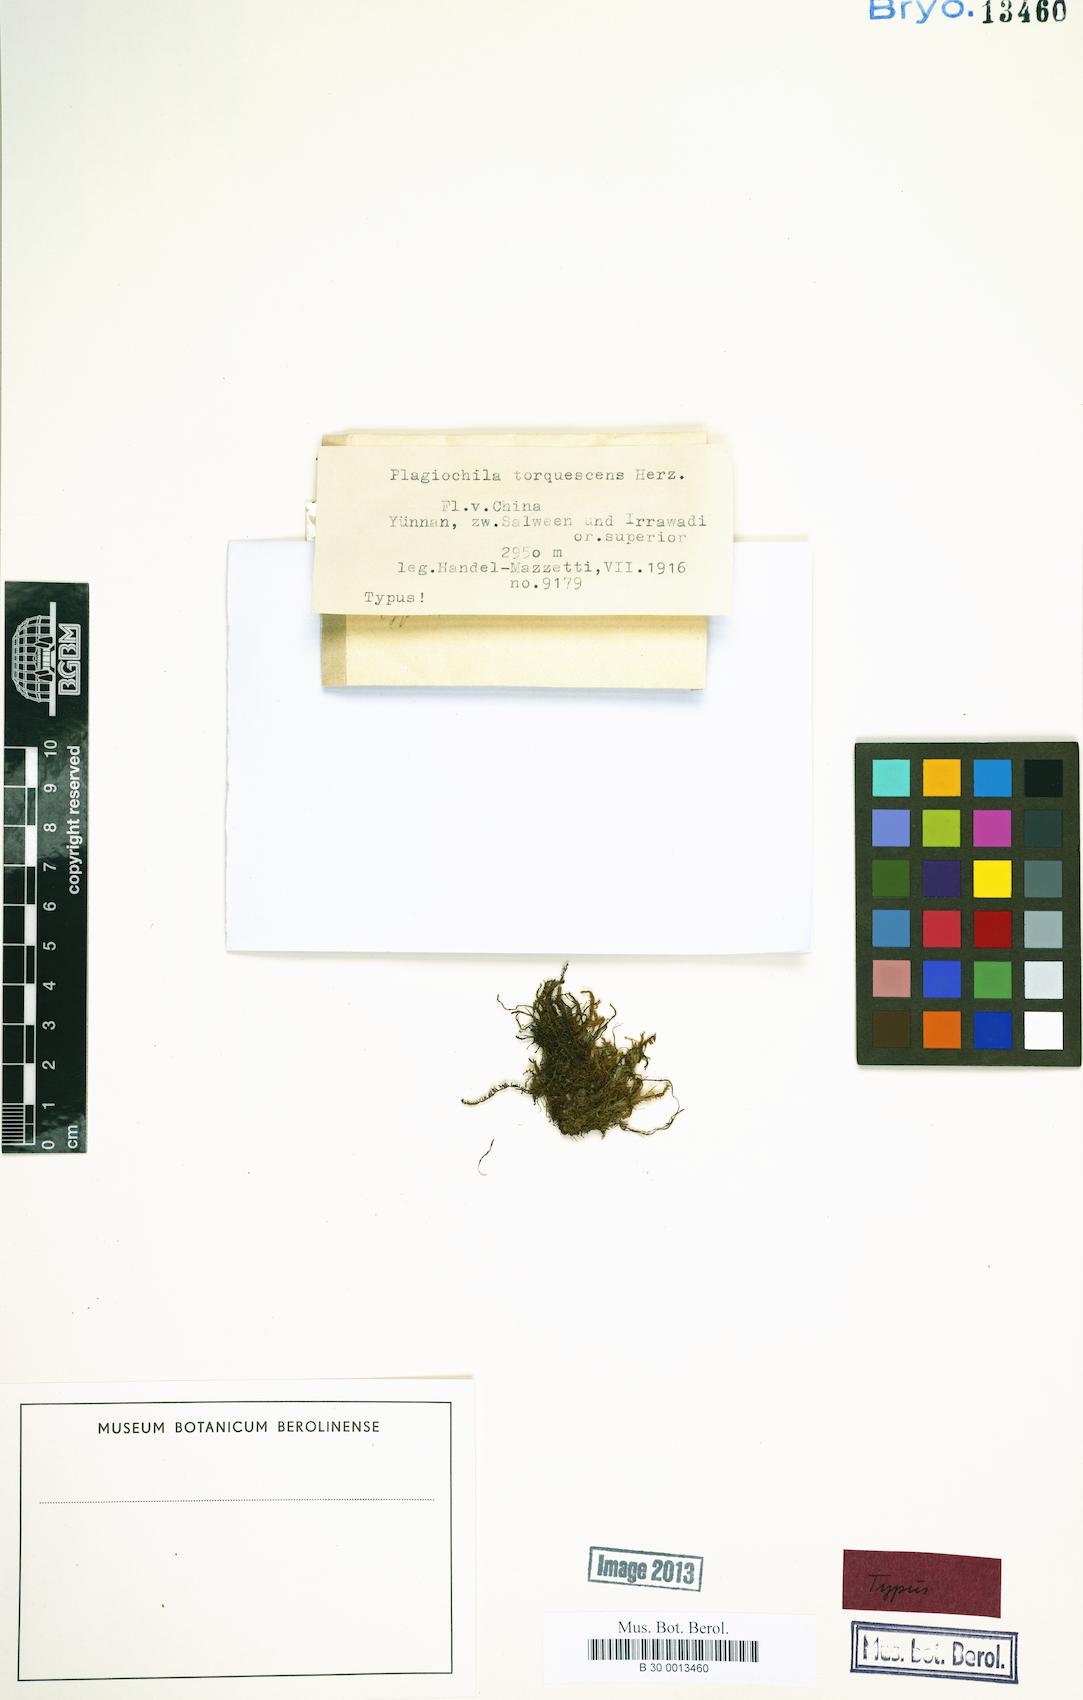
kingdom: Plantae
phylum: Marchantiophyta
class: Jungermanniopsida
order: Jungermanniales
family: Plagiochilaceae
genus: Plagiochila
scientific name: Plagiochila durelii
